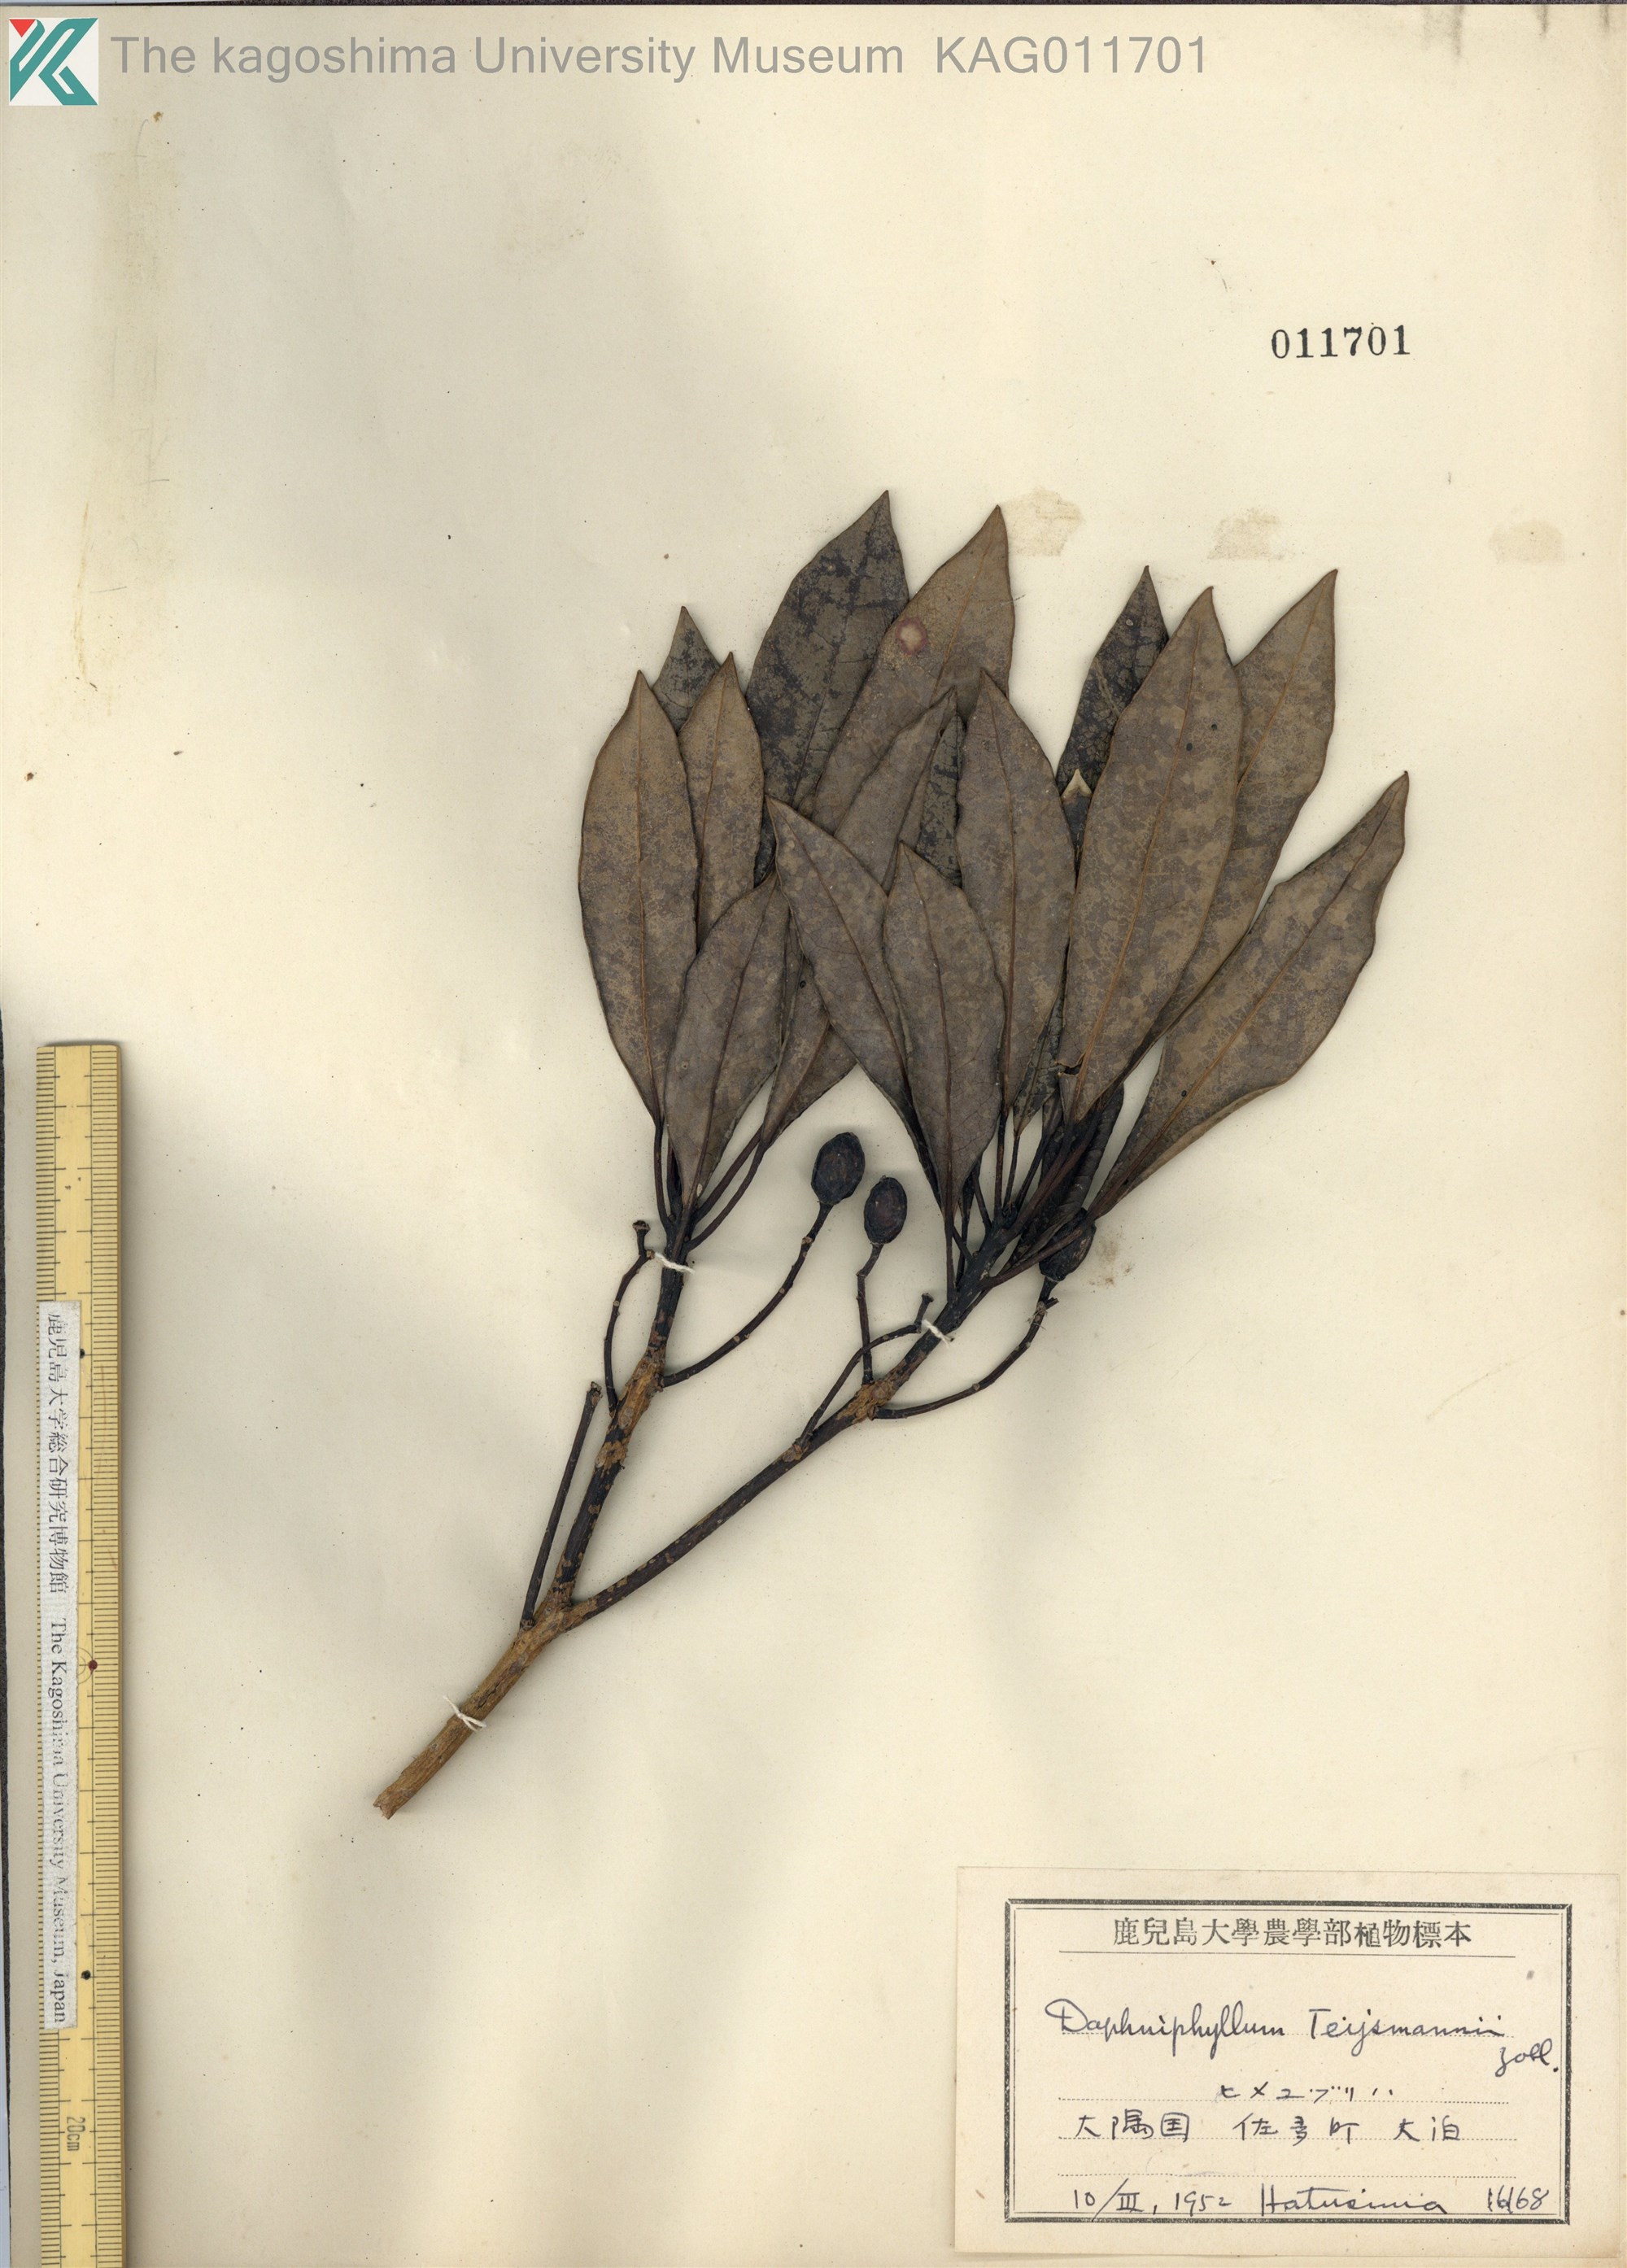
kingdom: Plantae
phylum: Tracheophyta
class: Magnoliopsida
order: Saxifragales
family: Daphniphyllaceae
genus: Daphniphyllum
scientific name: Daphniphyllum teijsmannii
